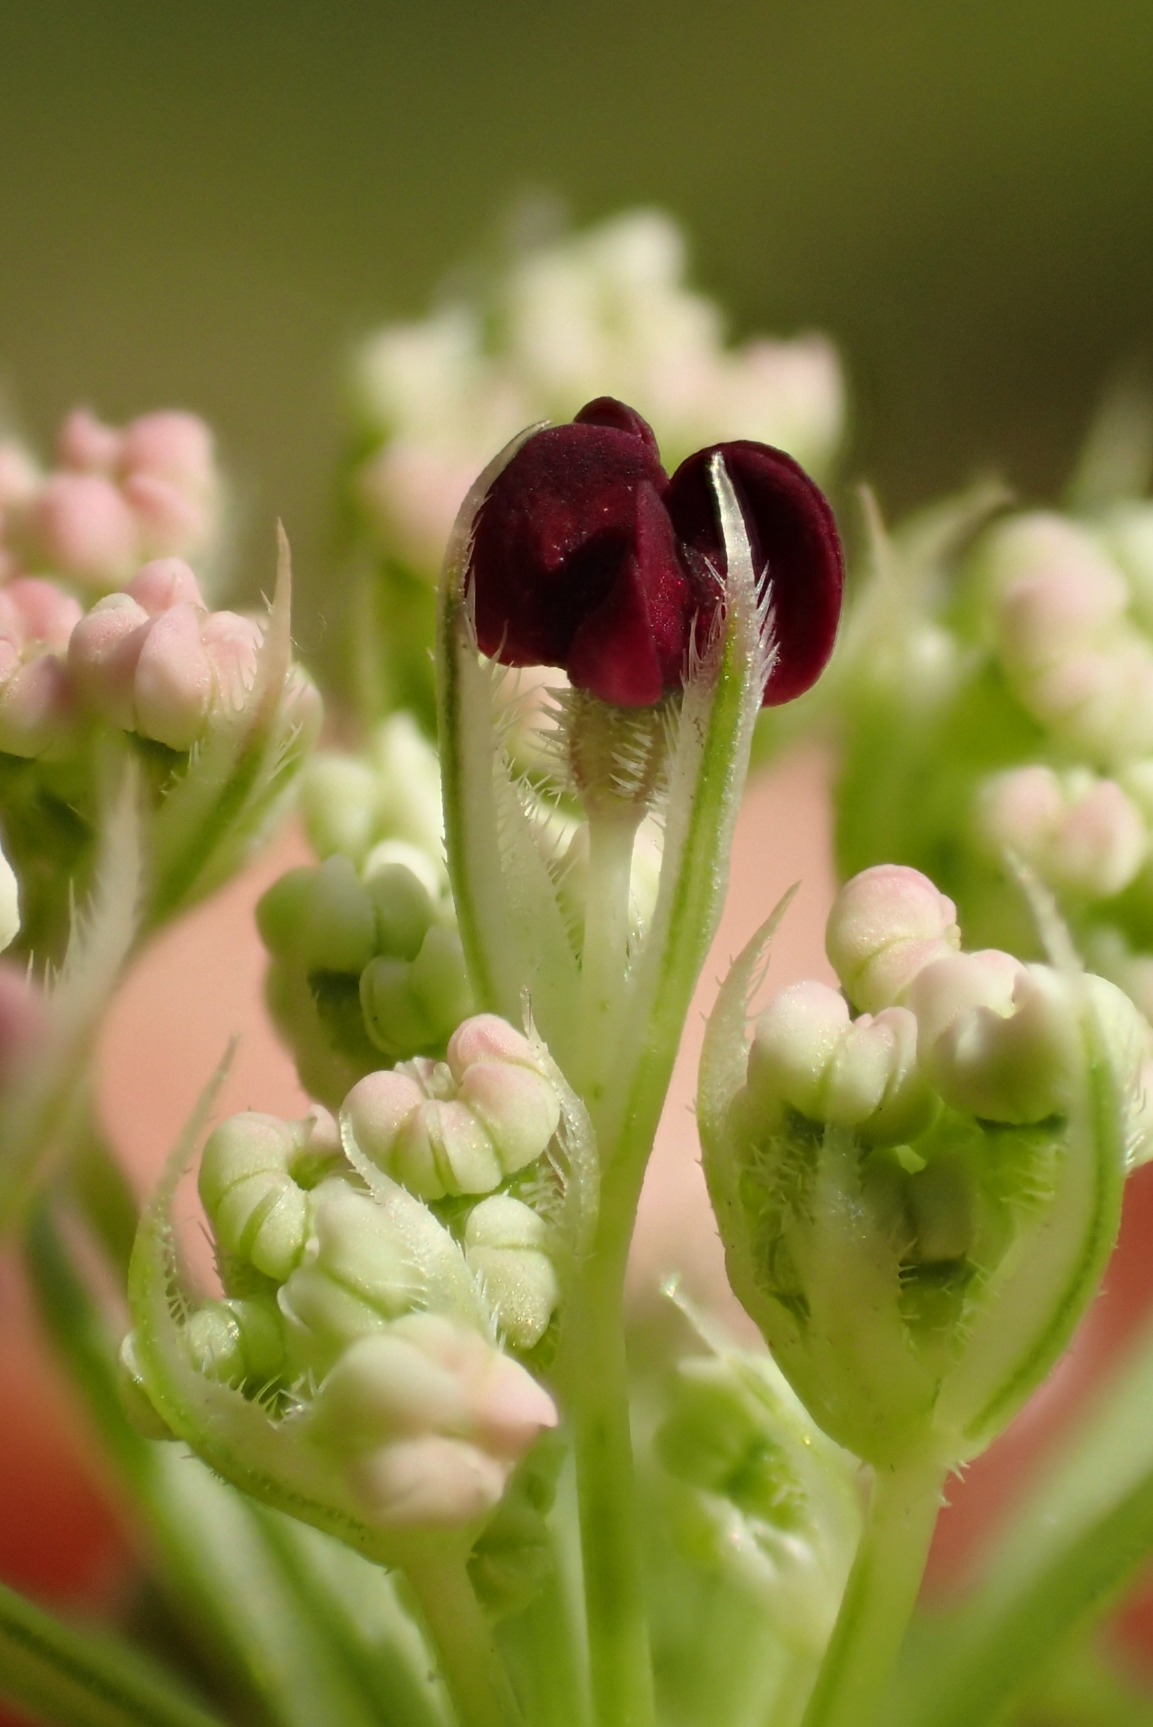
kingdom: Plantae
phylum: Tracheophyta
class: Magnoliopsida
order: Apiales
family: Apiaceae
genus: Daucus
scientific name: Daucus carota
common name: Gulerod
